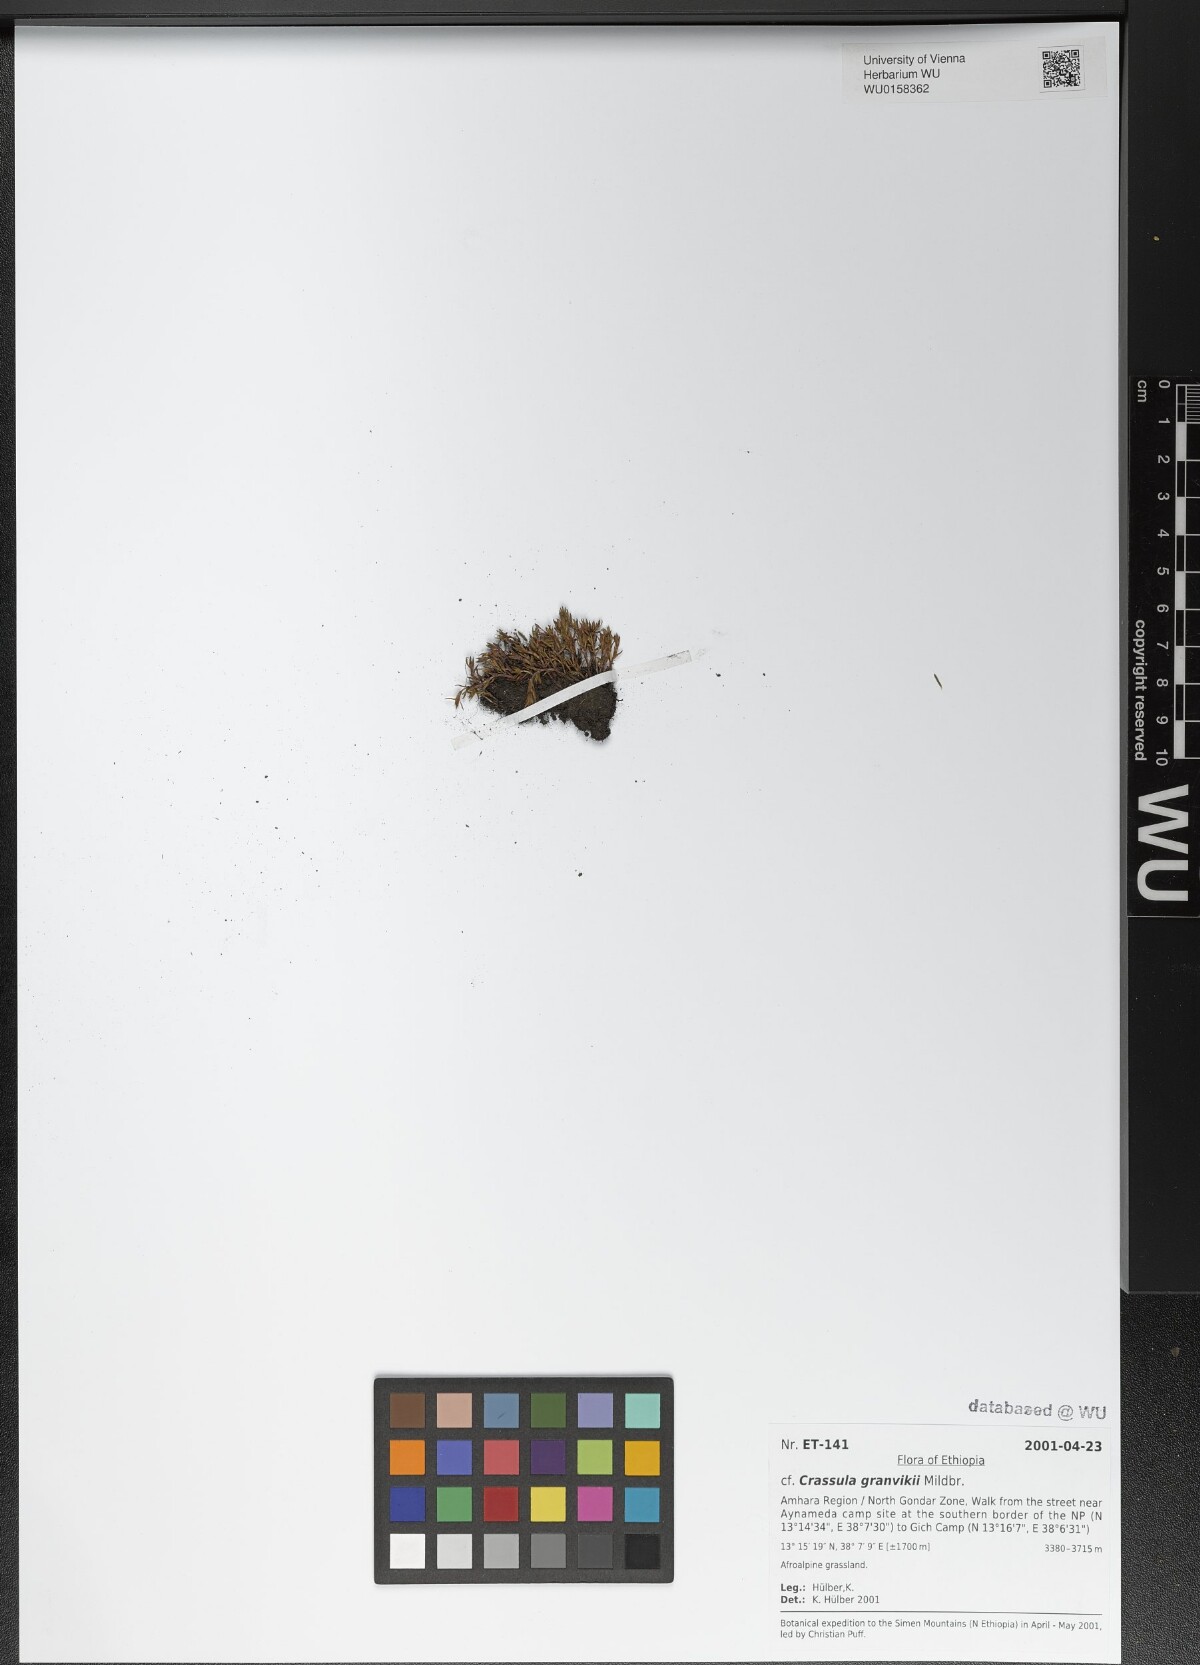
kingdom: Plantae
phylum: Tracheophyta
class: Magnoliopsida
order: Saxifragales
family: Crassulaceae
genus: Crassula
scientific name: Crassula granvikii
